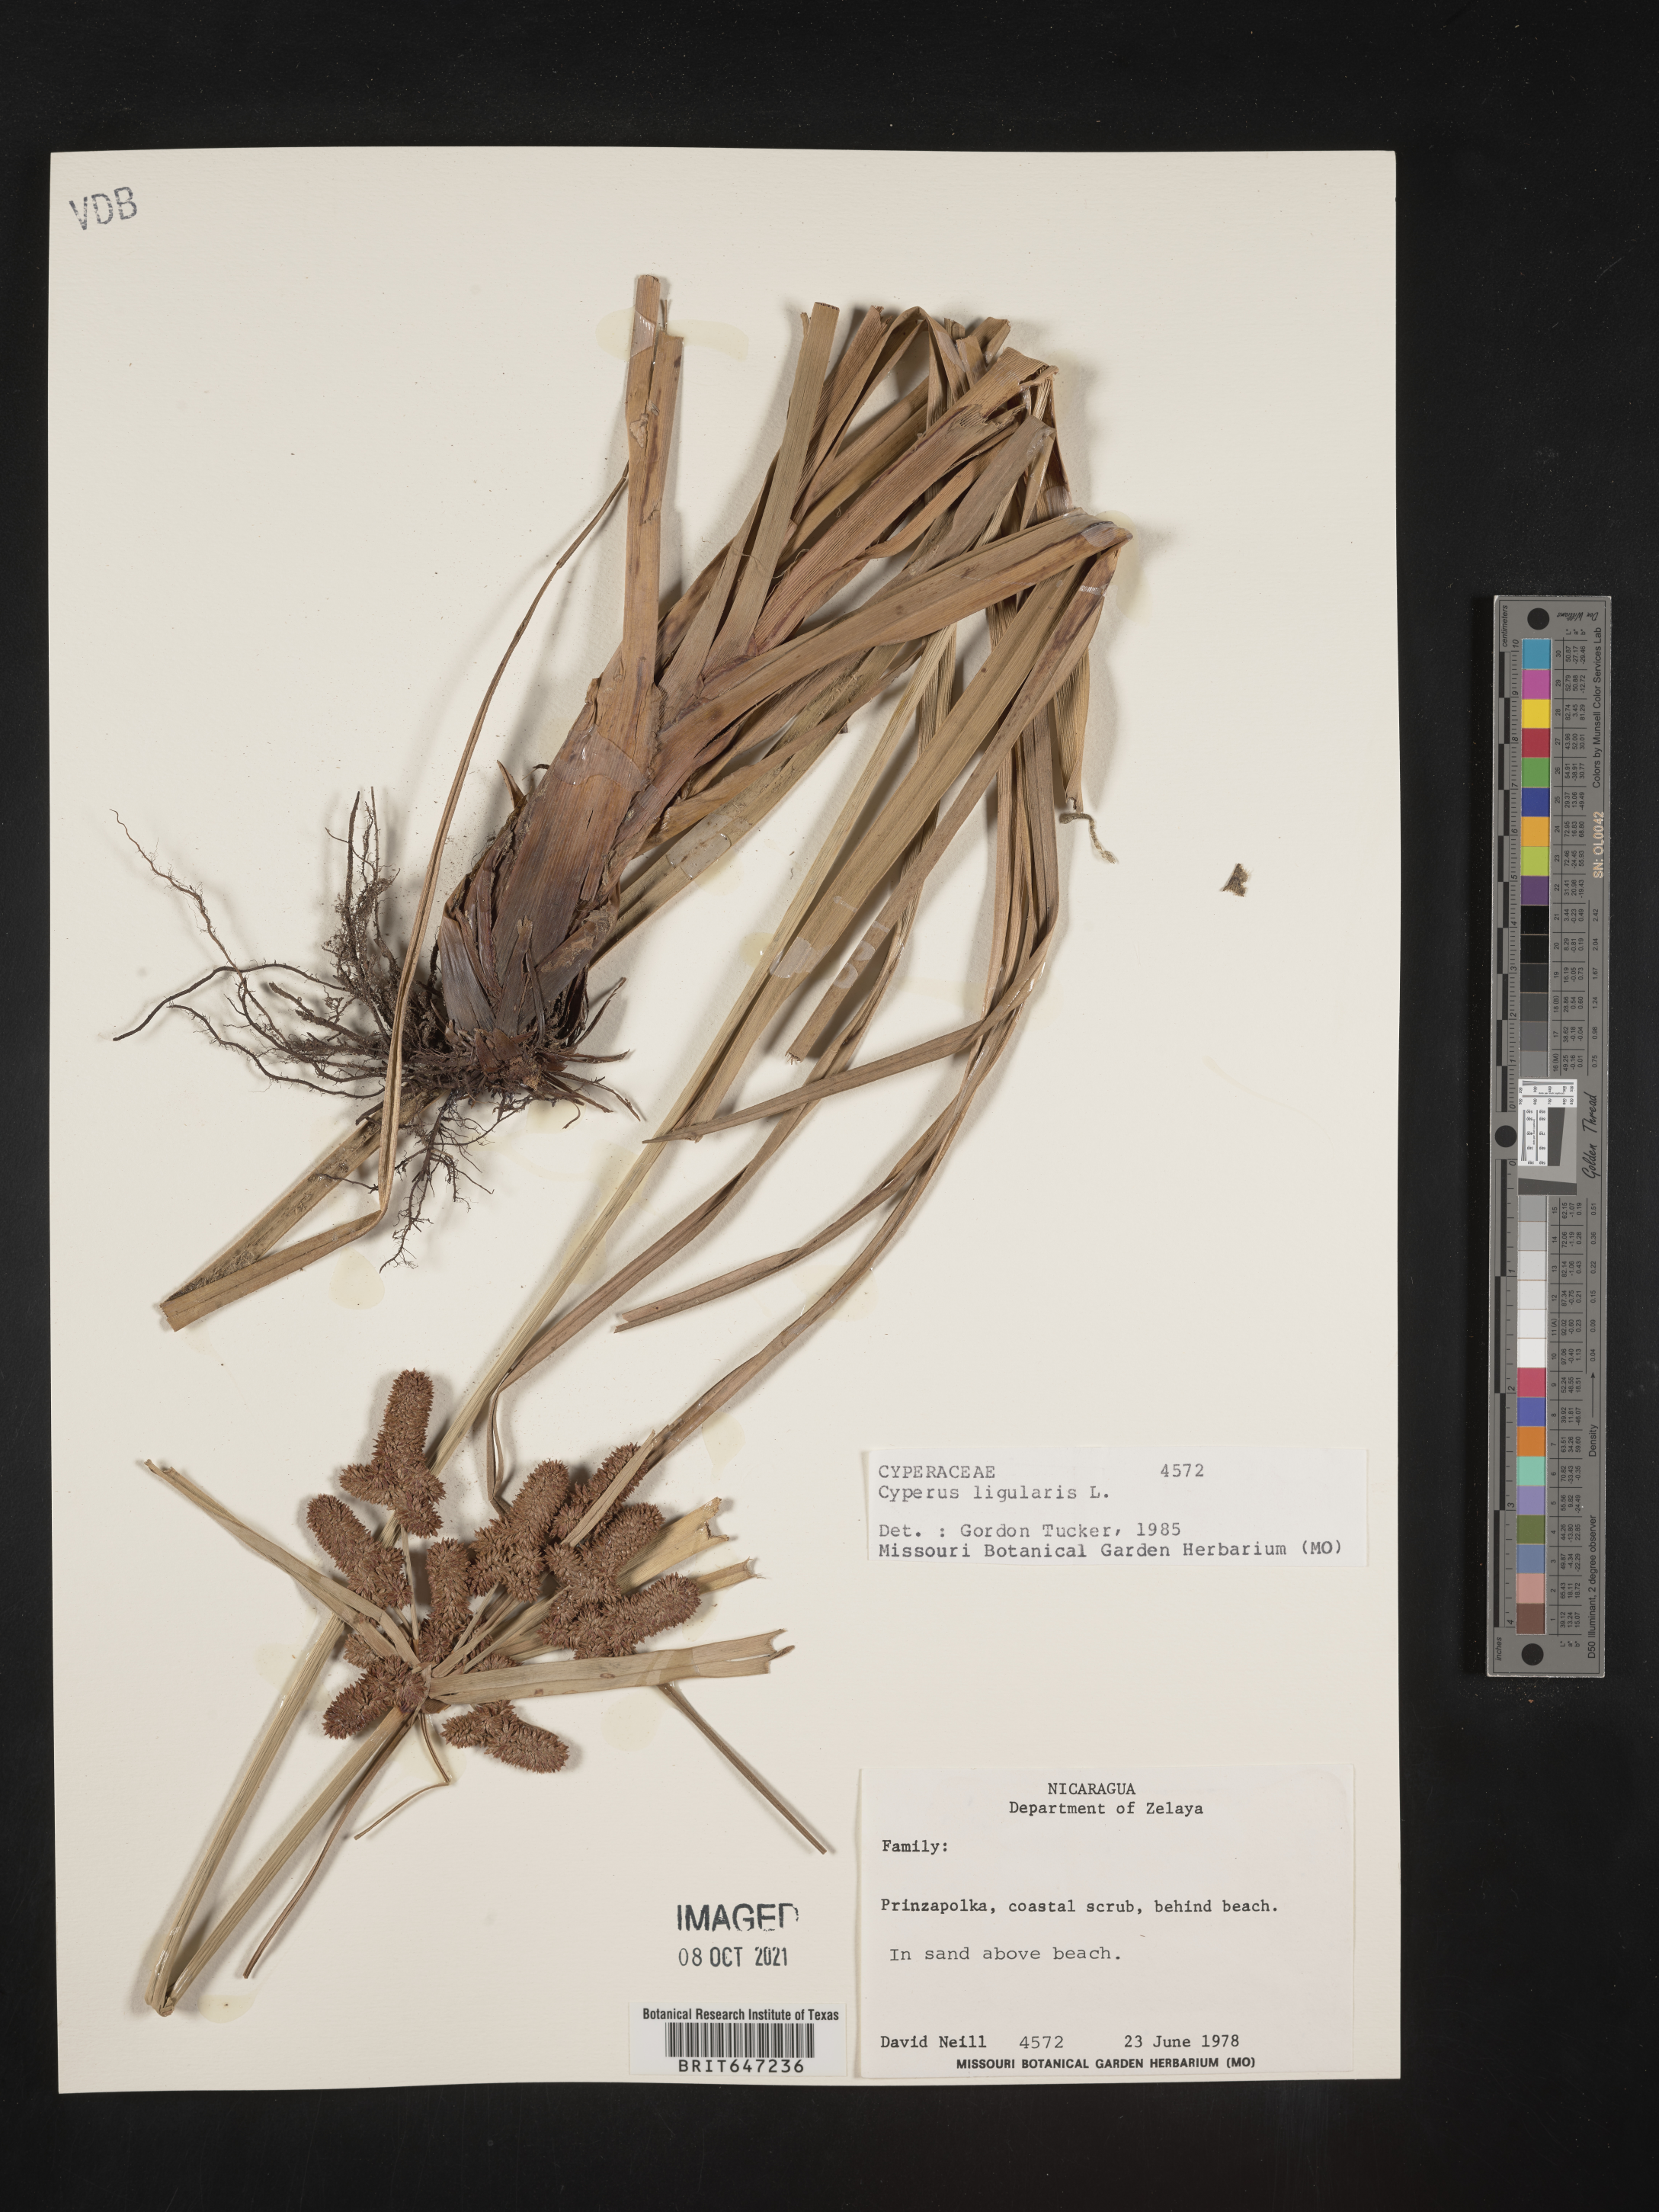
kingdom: Plantae
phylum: Tracheophyta
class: Liliopsida
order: Poales
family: Cyperaceae
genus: Cyperus
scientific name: Cyperus ligularis
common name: Swamp flat sedge
